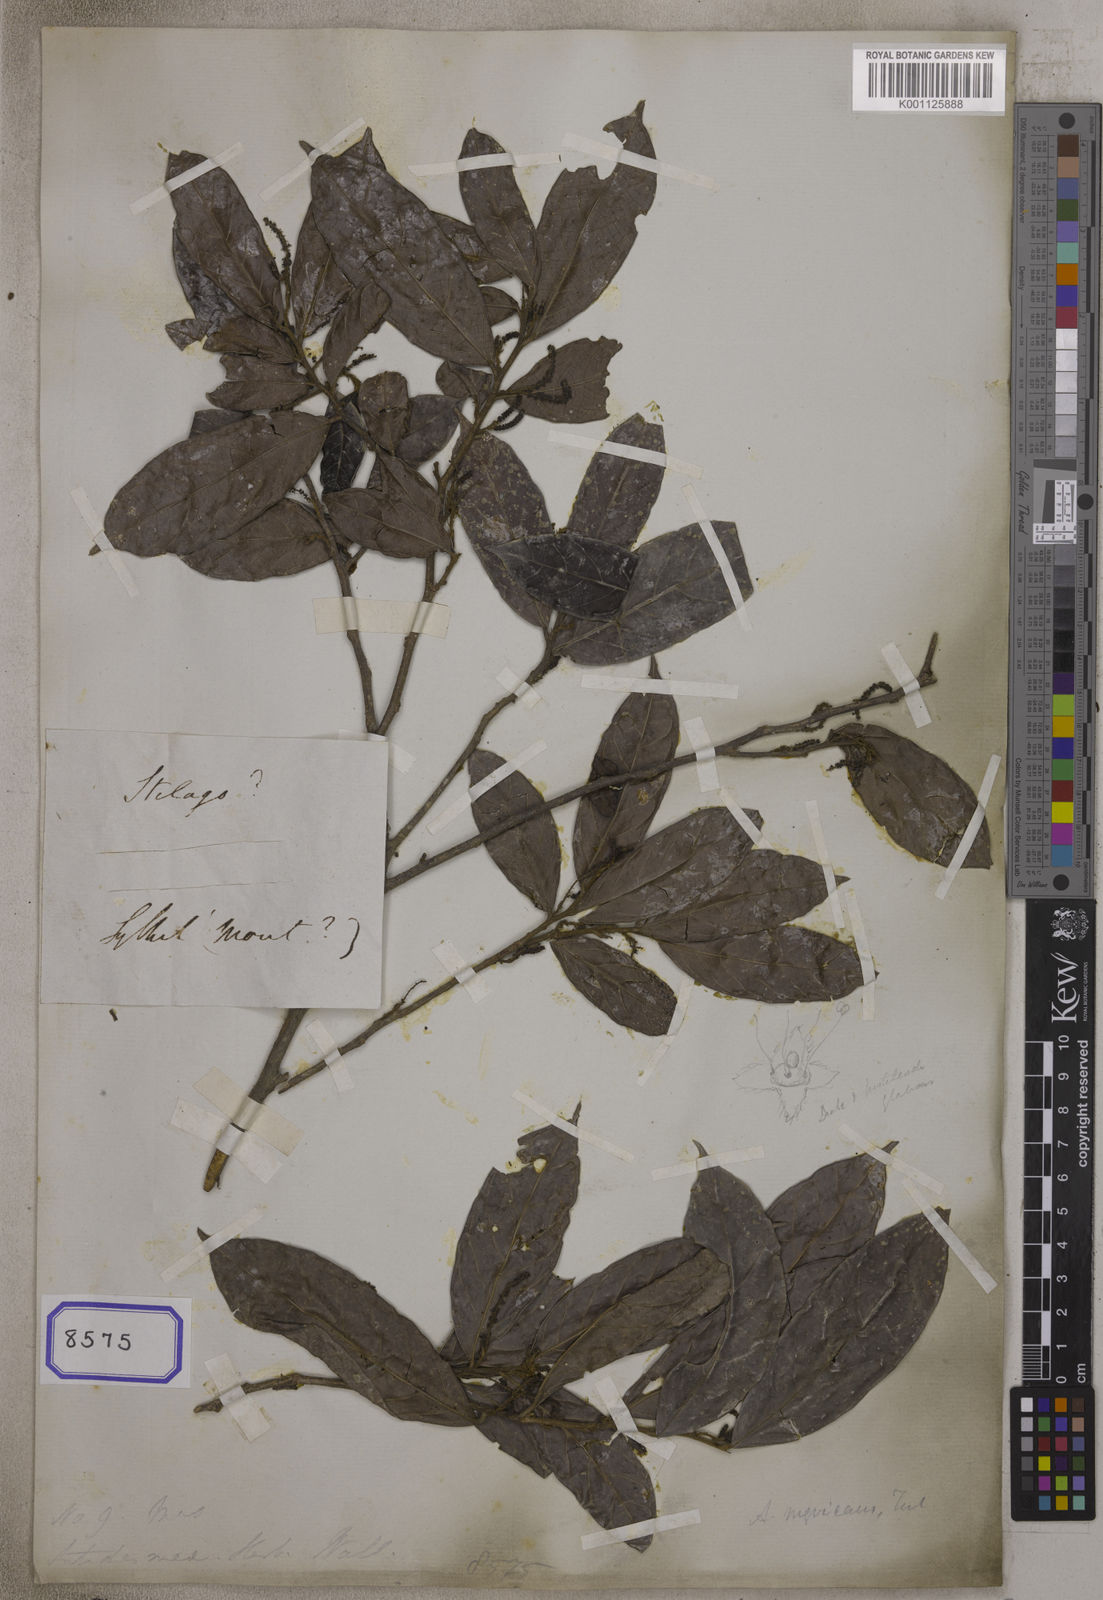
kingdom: Plantae
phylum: Tracheophyta
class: Magnoliopsida
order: Malpighiales
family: Phyllanthaceae
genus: Antidesma
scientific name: Antidesma
